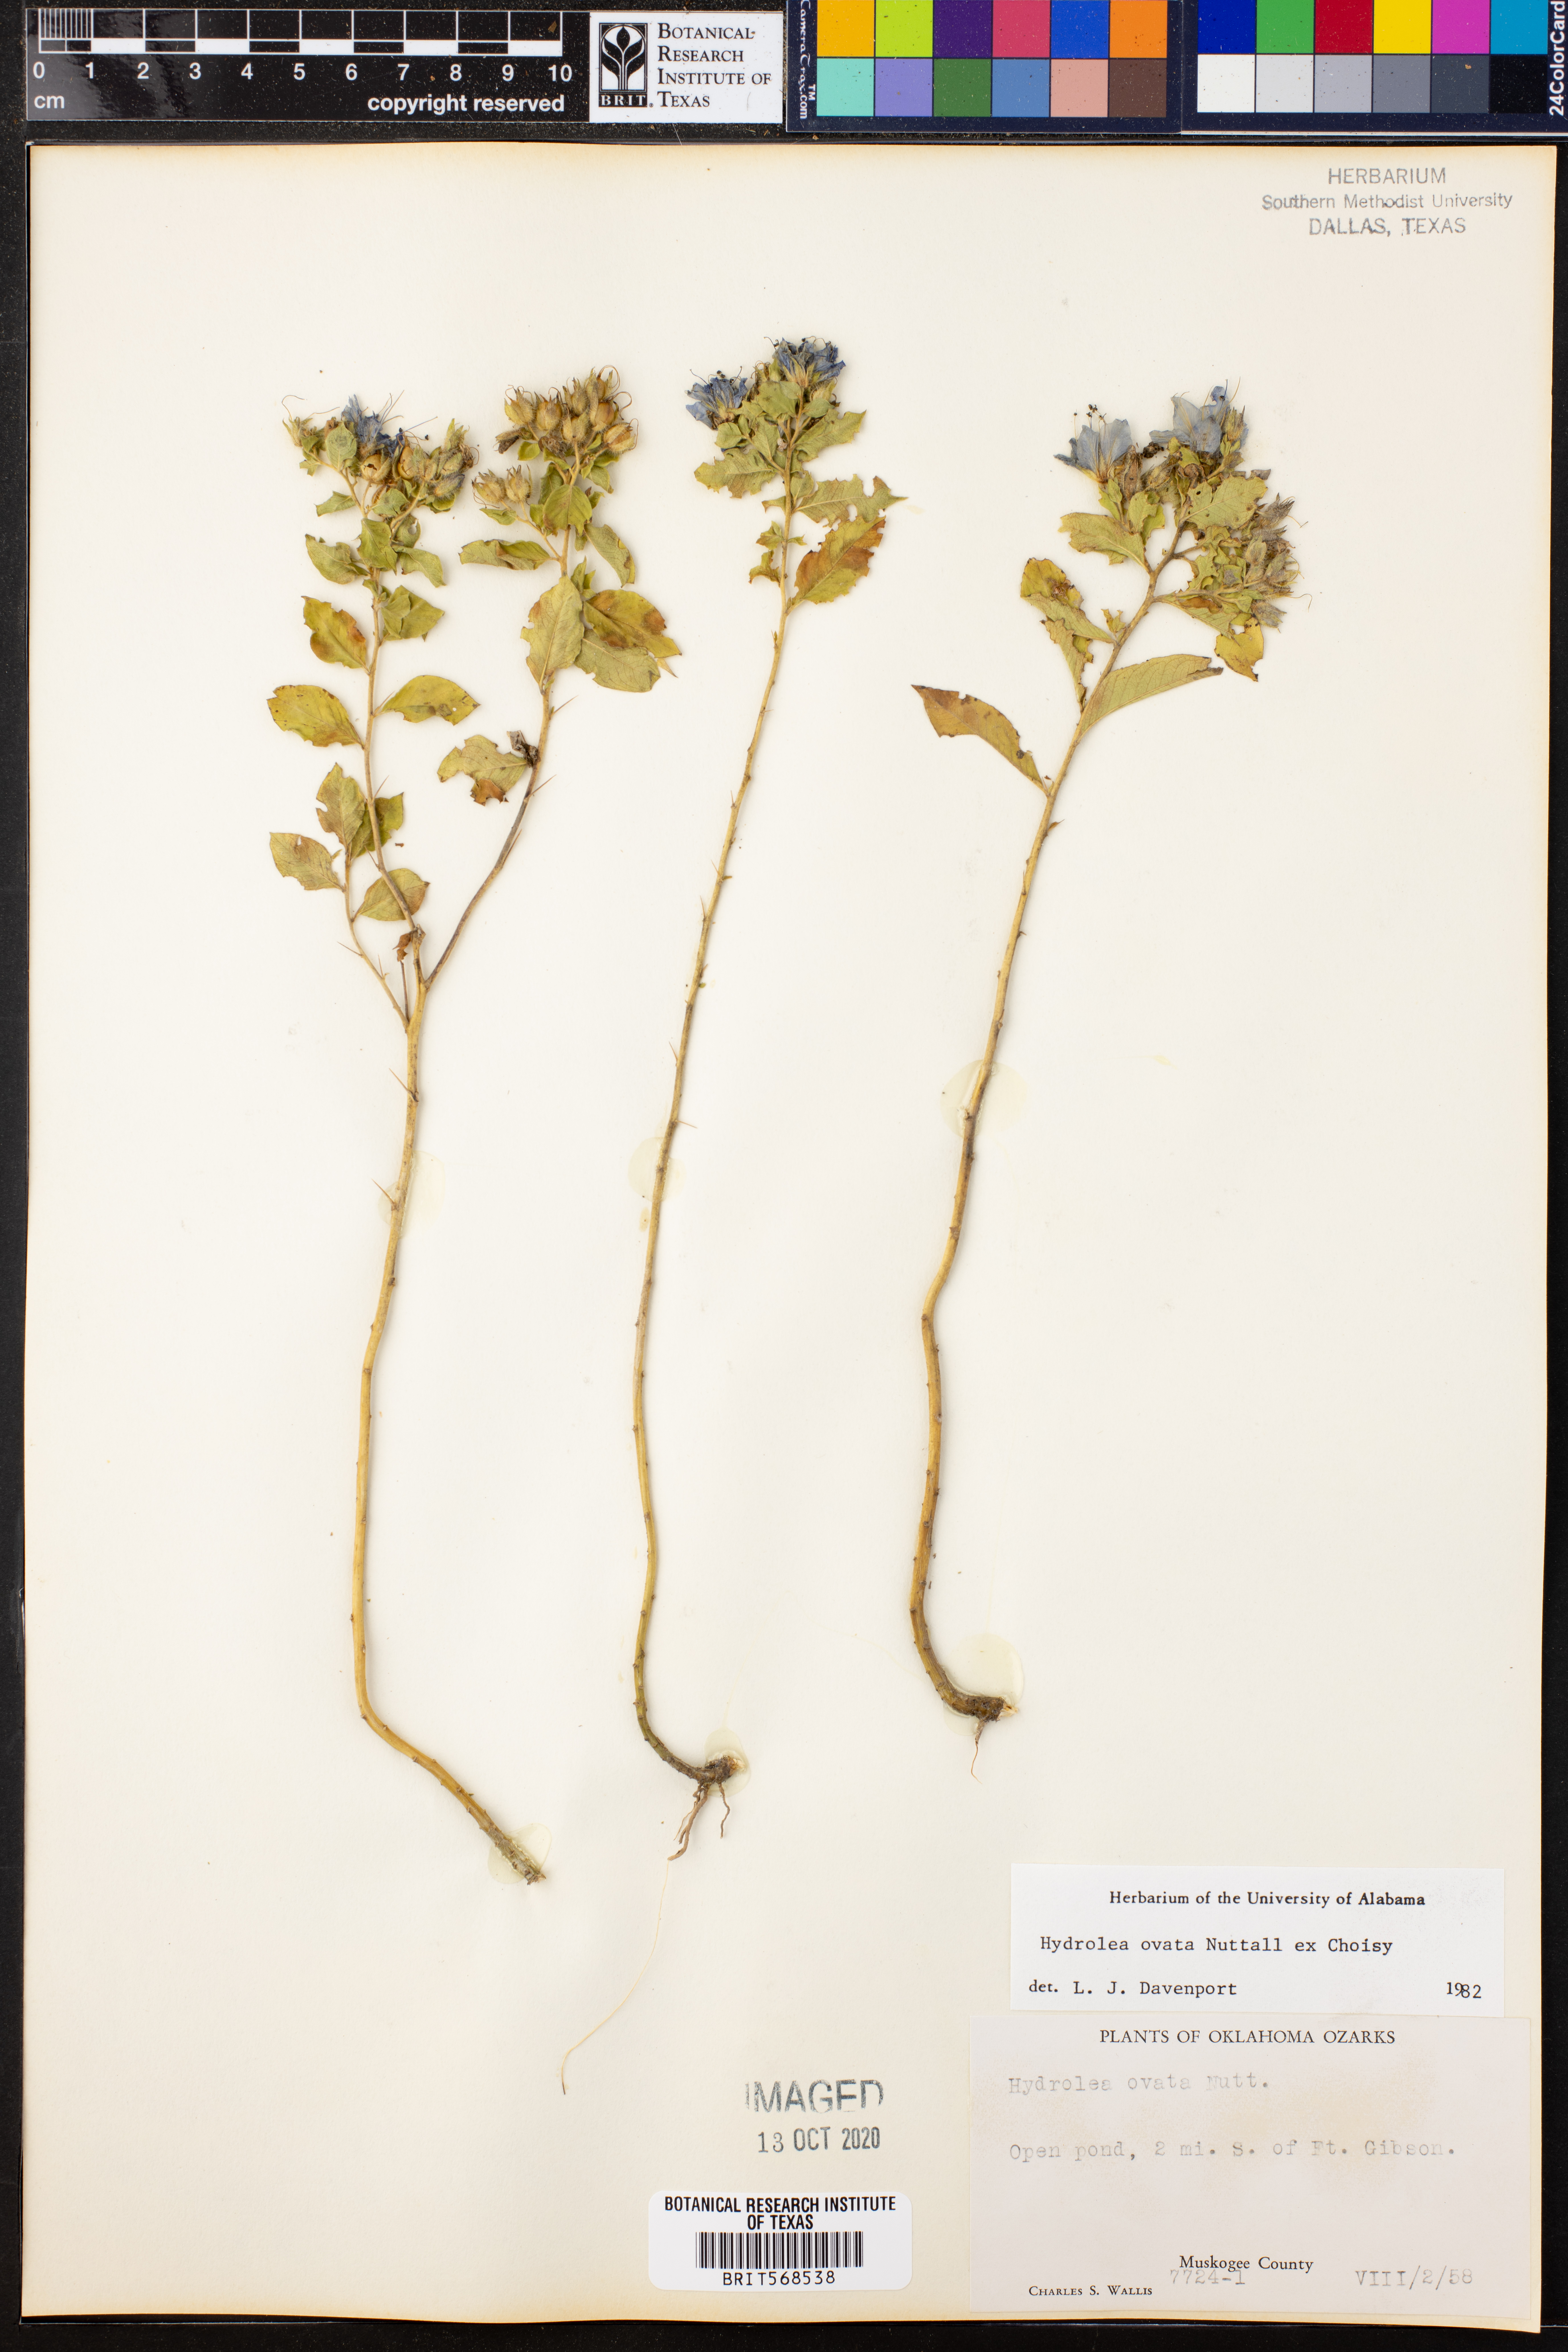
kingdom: Plantae
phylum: Tracheophyta
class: Magnoliopsida
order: Solanales
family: Hydroleaceae
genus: Hydrolea
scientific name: Hydrolea ovata
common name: Ovate false fiddleleaf
